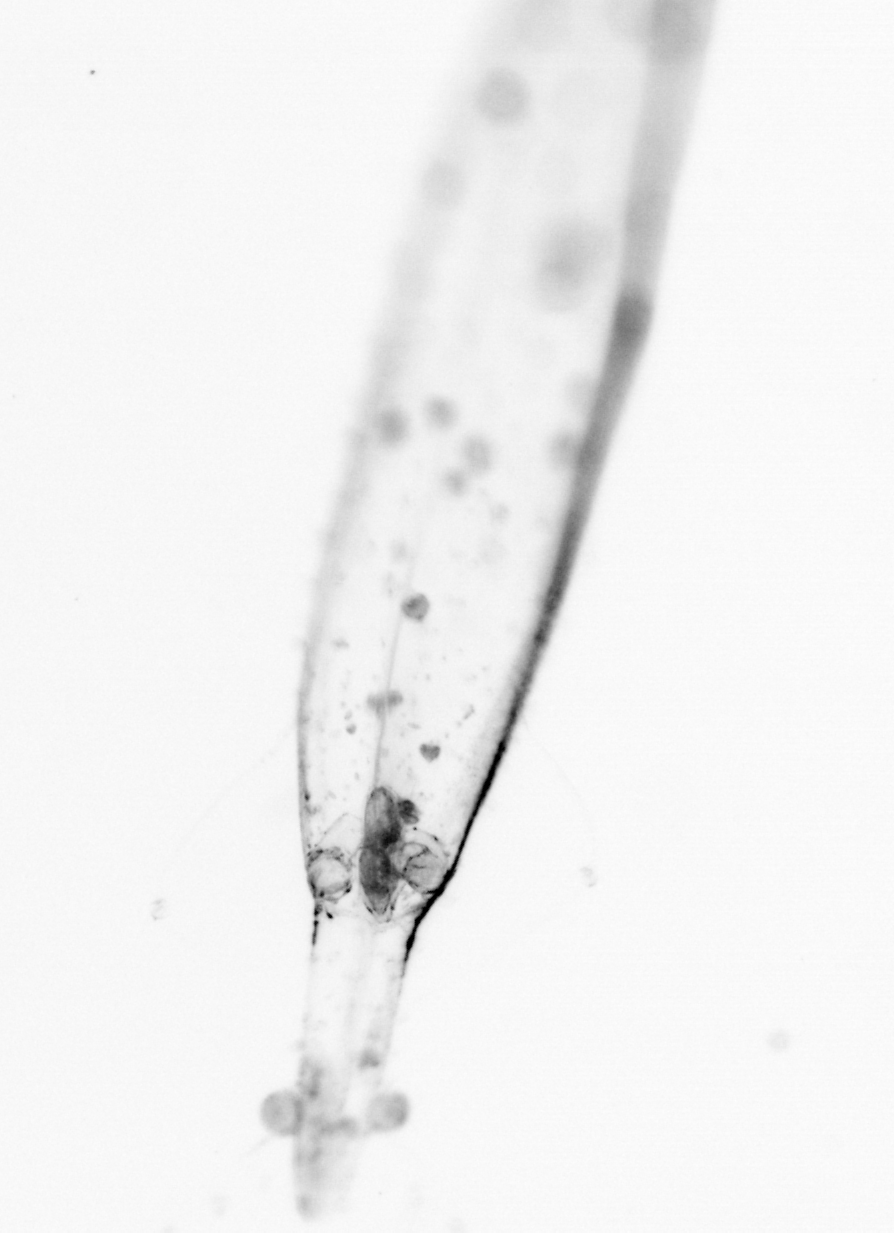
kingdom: Animalia
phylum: Chaetognatha
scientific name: Chaetognatha
